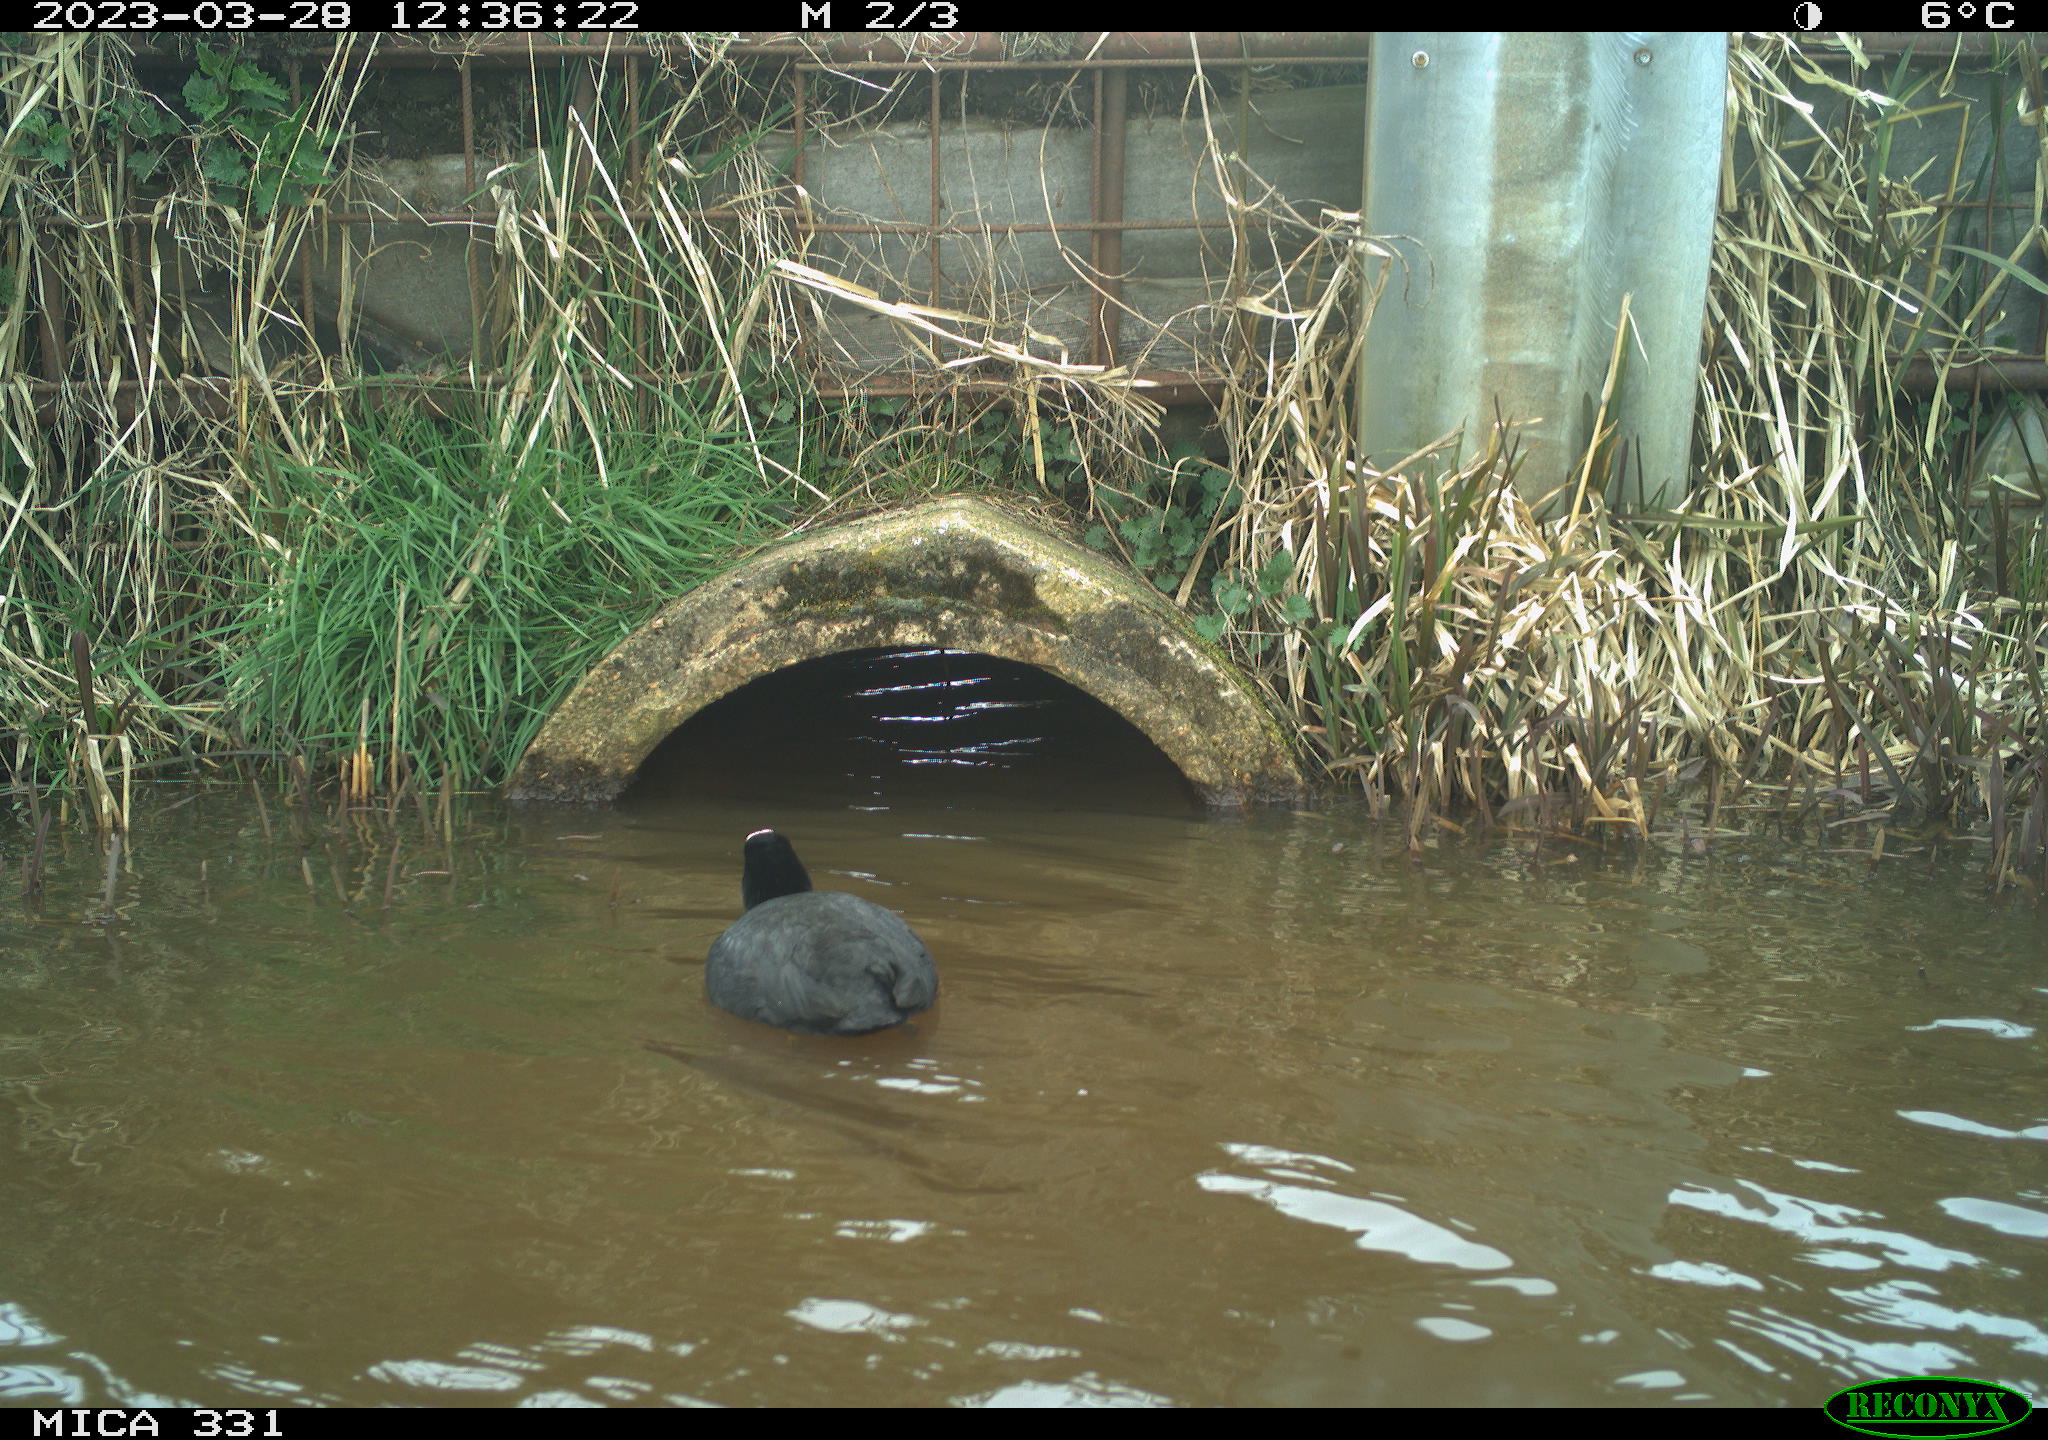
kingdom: Animalia
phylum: Chordata
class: Aves
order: Gruiformes
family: Rallidae
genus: Fulica
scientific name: Fulica atra
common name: Eurasian coot
